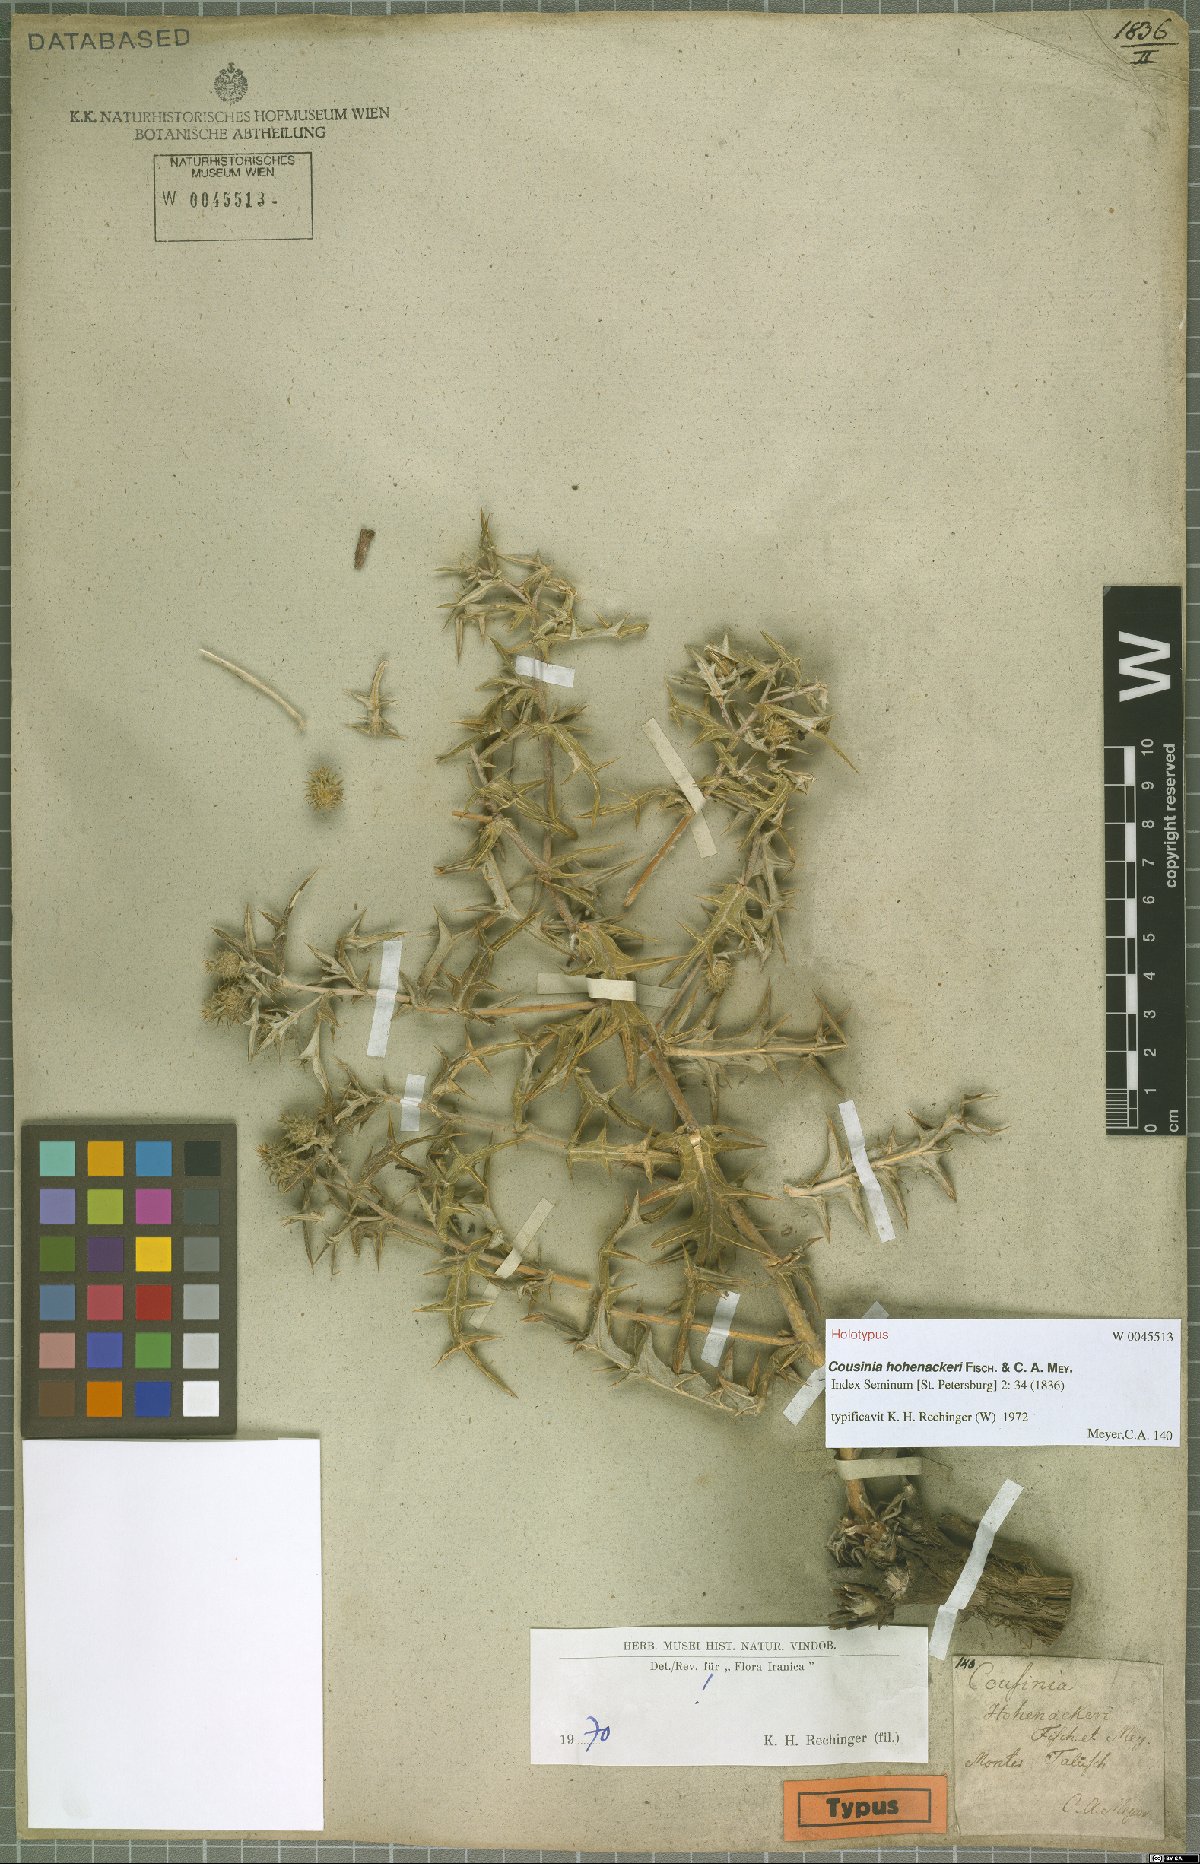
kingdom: Plantae
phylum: Tracheophyta
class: Magnoliopsida
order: Asterales
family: Asteraceae
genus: Cousinia
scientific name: Cousinia hohenackeri
